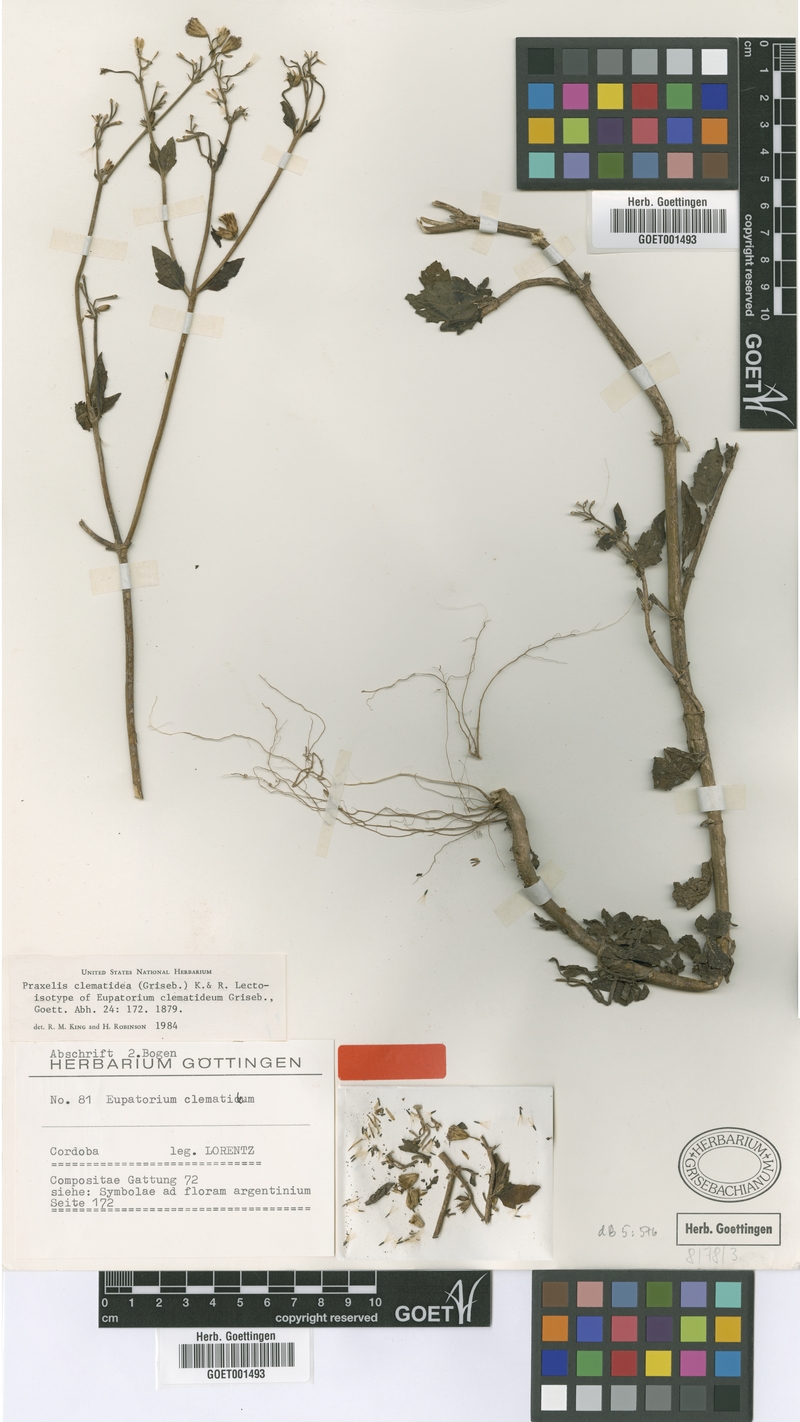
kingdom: Plantae
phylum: Tracheophyta
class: Magnoliopsida
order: Asterales
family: Asteraceae
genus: Praxelis
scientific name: Praxelis clematidea
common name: Praxelis
